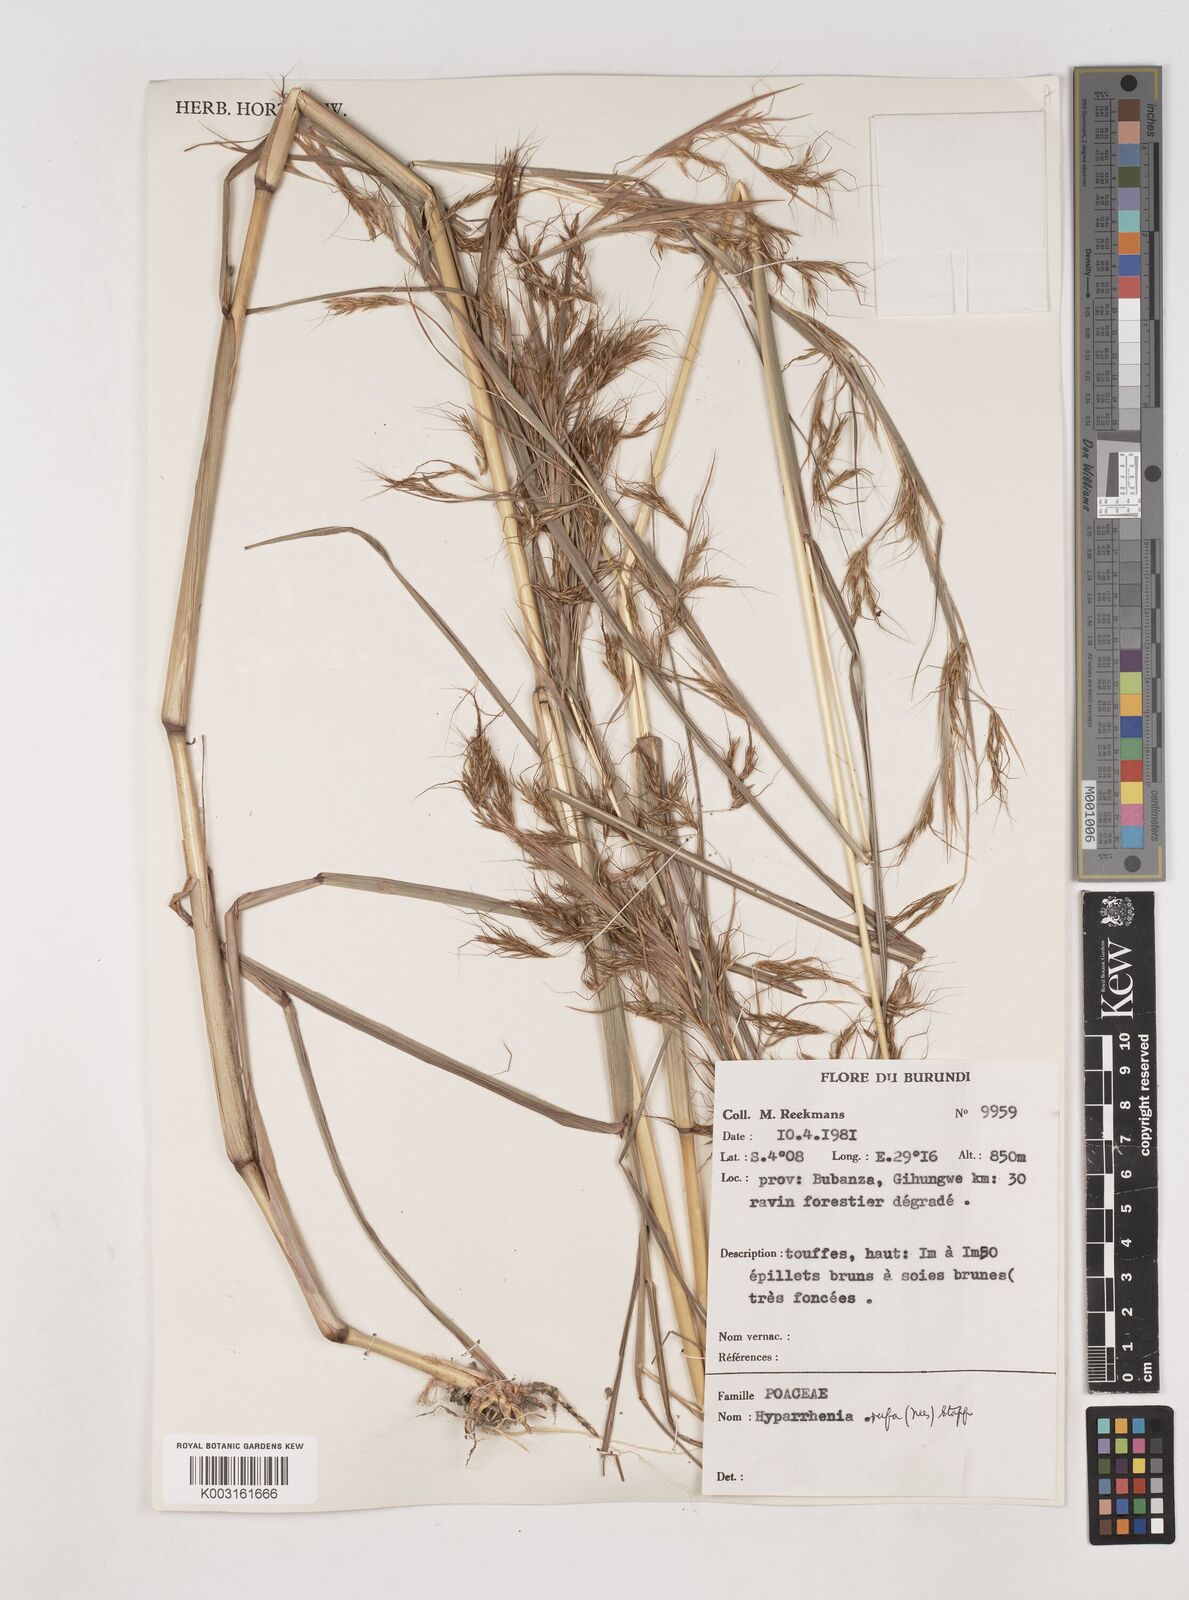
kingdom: Plantae
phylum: Tracheophyta
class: Liliopsida
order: Poales
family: Poaceae
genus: Hyparrhenia
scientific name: Hyparrhenia rufa
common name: Jaraguagrass
